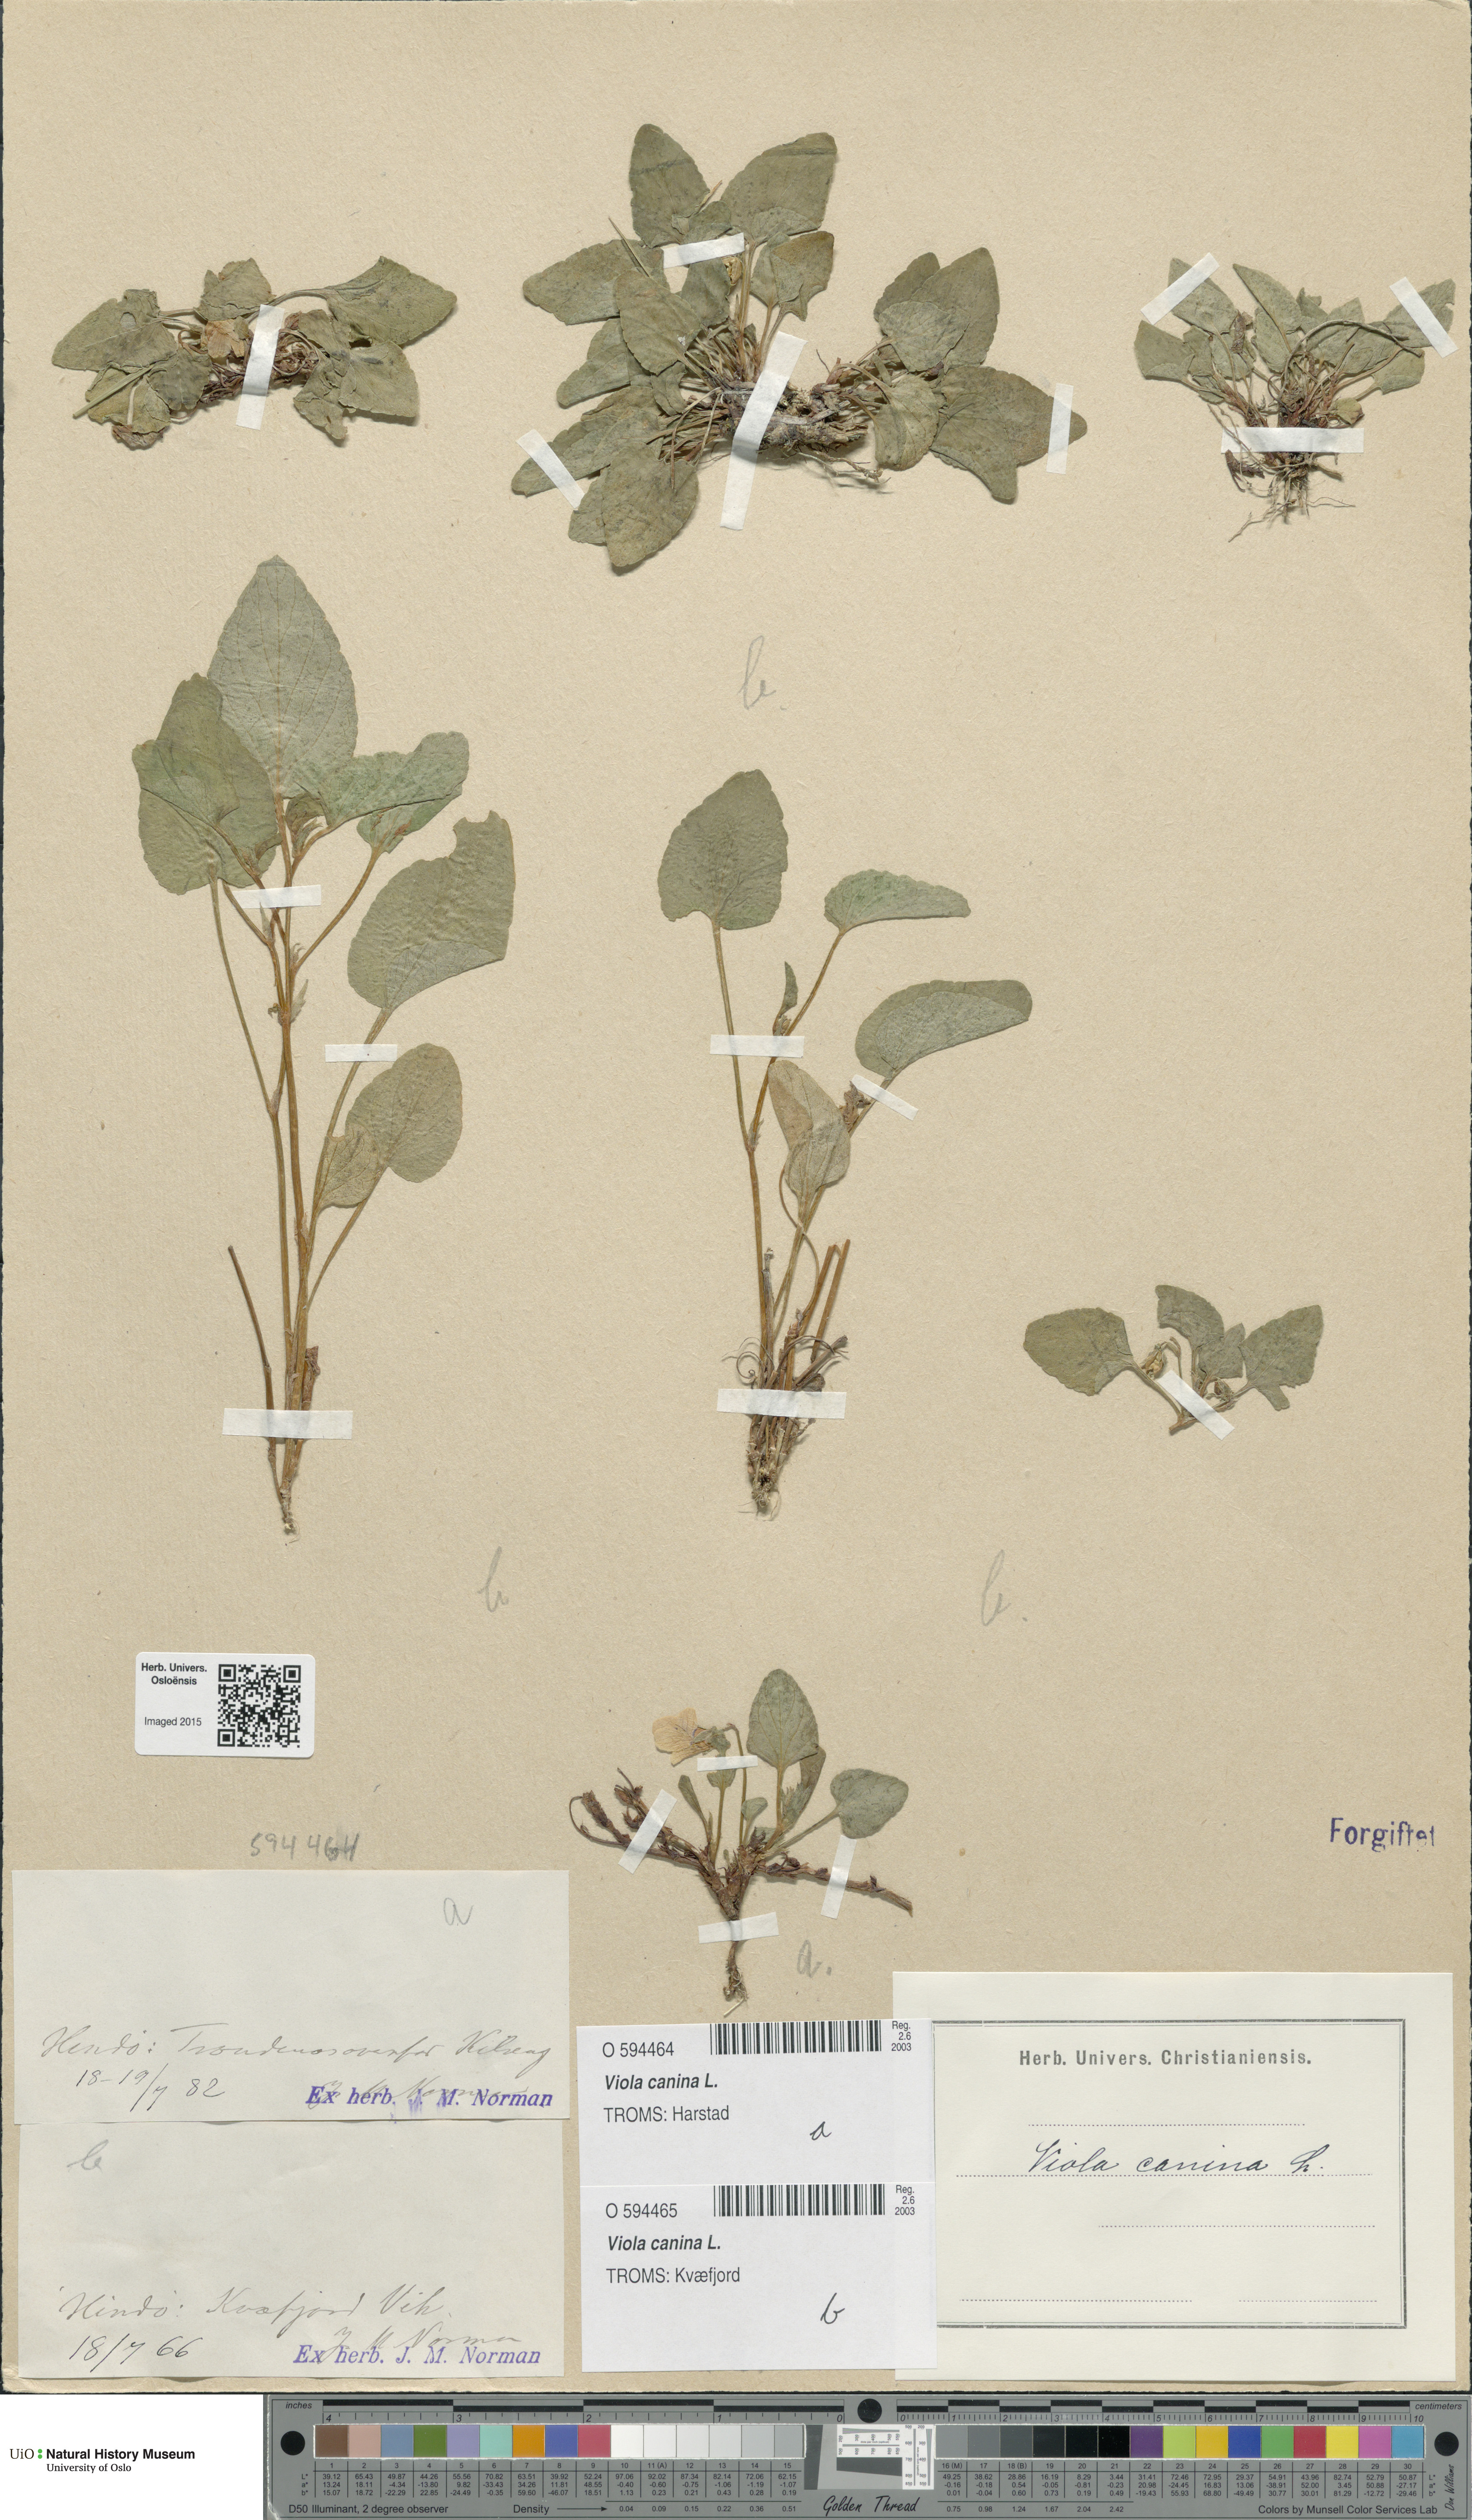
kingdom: Plantae
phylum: Tracheophyta
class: Magnoliopsida
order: Malpighiales
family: Violaceae
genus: Viola
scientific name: Viola canina
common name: Heath dog-violet
